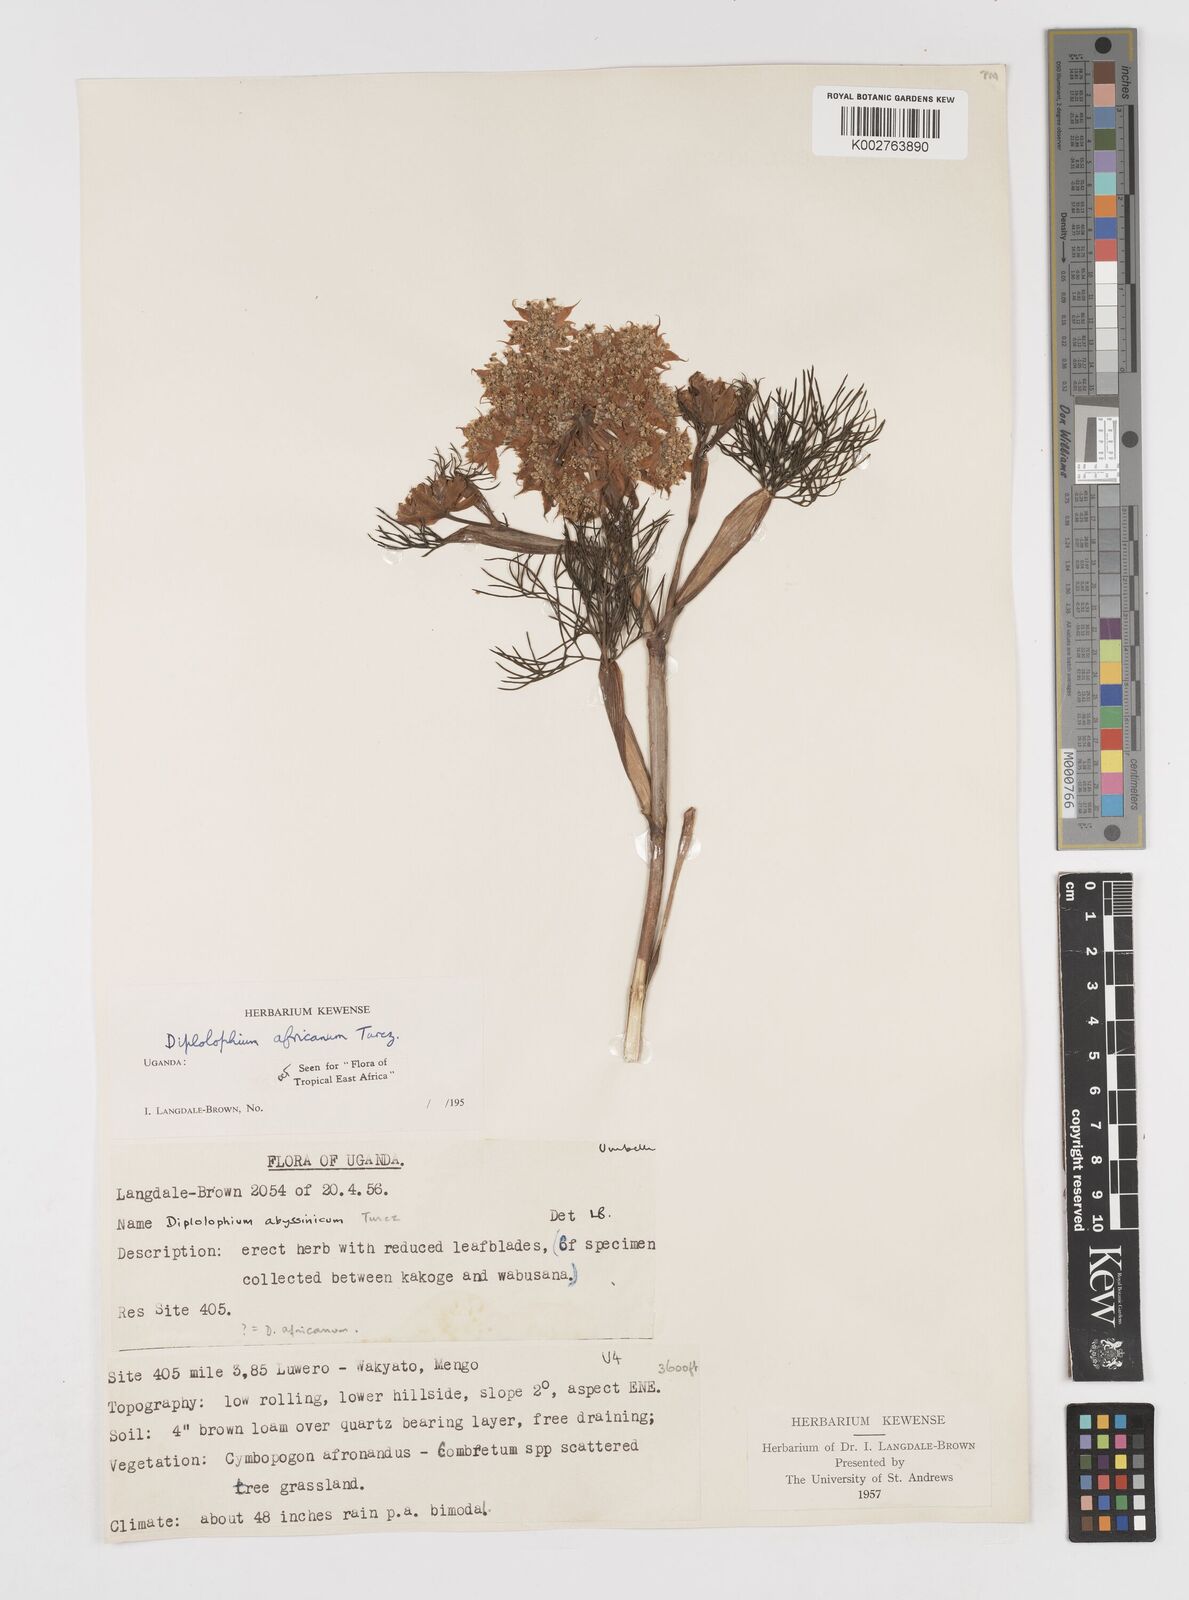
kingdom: Plantae
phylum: Tracheophyta
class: Magnoliopsida
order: Apiales
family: Apiaceae
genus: Diplolophium
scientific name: Diplolophium africanum
